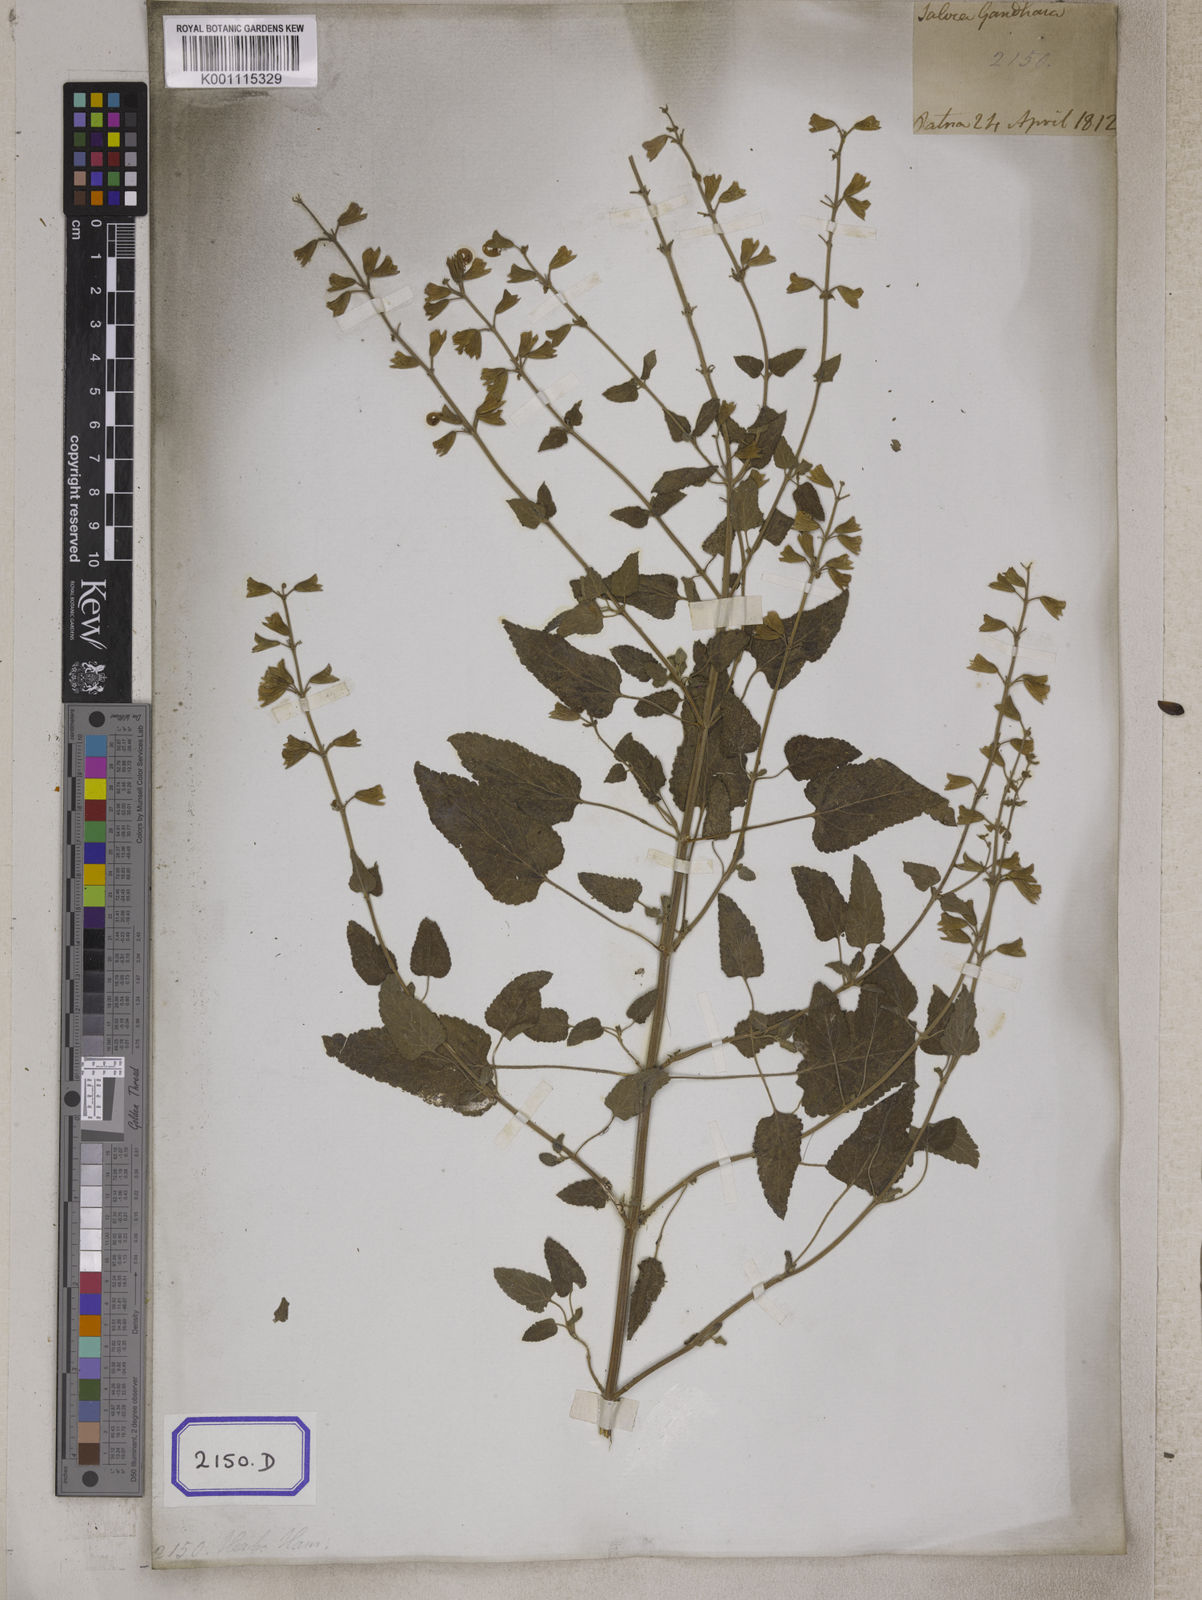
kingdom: Plantae
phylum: Tracheophyta
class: Magnoliopsida
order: Lamiales
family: Lamiaceae
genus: Salvia
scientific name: Salvia coccinea
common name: Blood sage
